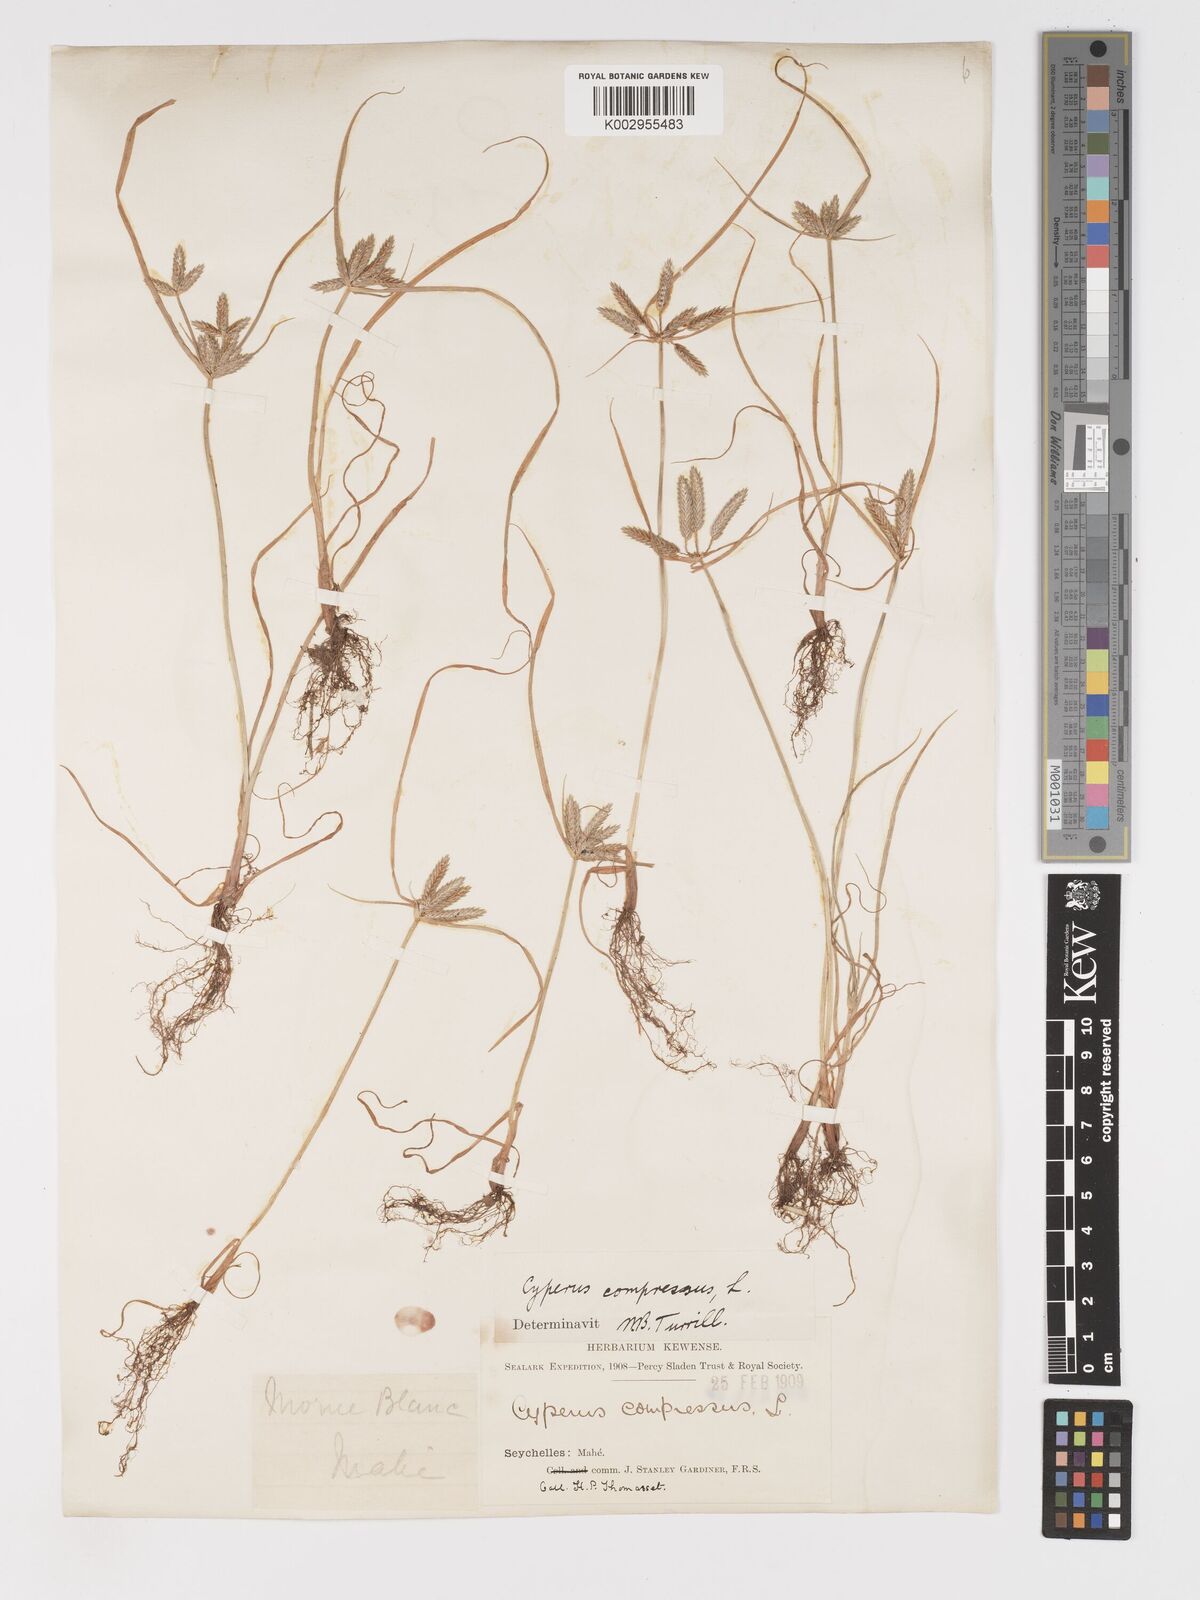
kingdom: Plantae
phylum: Tracheophyta
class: Liliopsida
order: Poales
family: Cyperaceae
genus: Cyperus
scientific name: Cyperus compressus
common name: Poorland flatsedge
